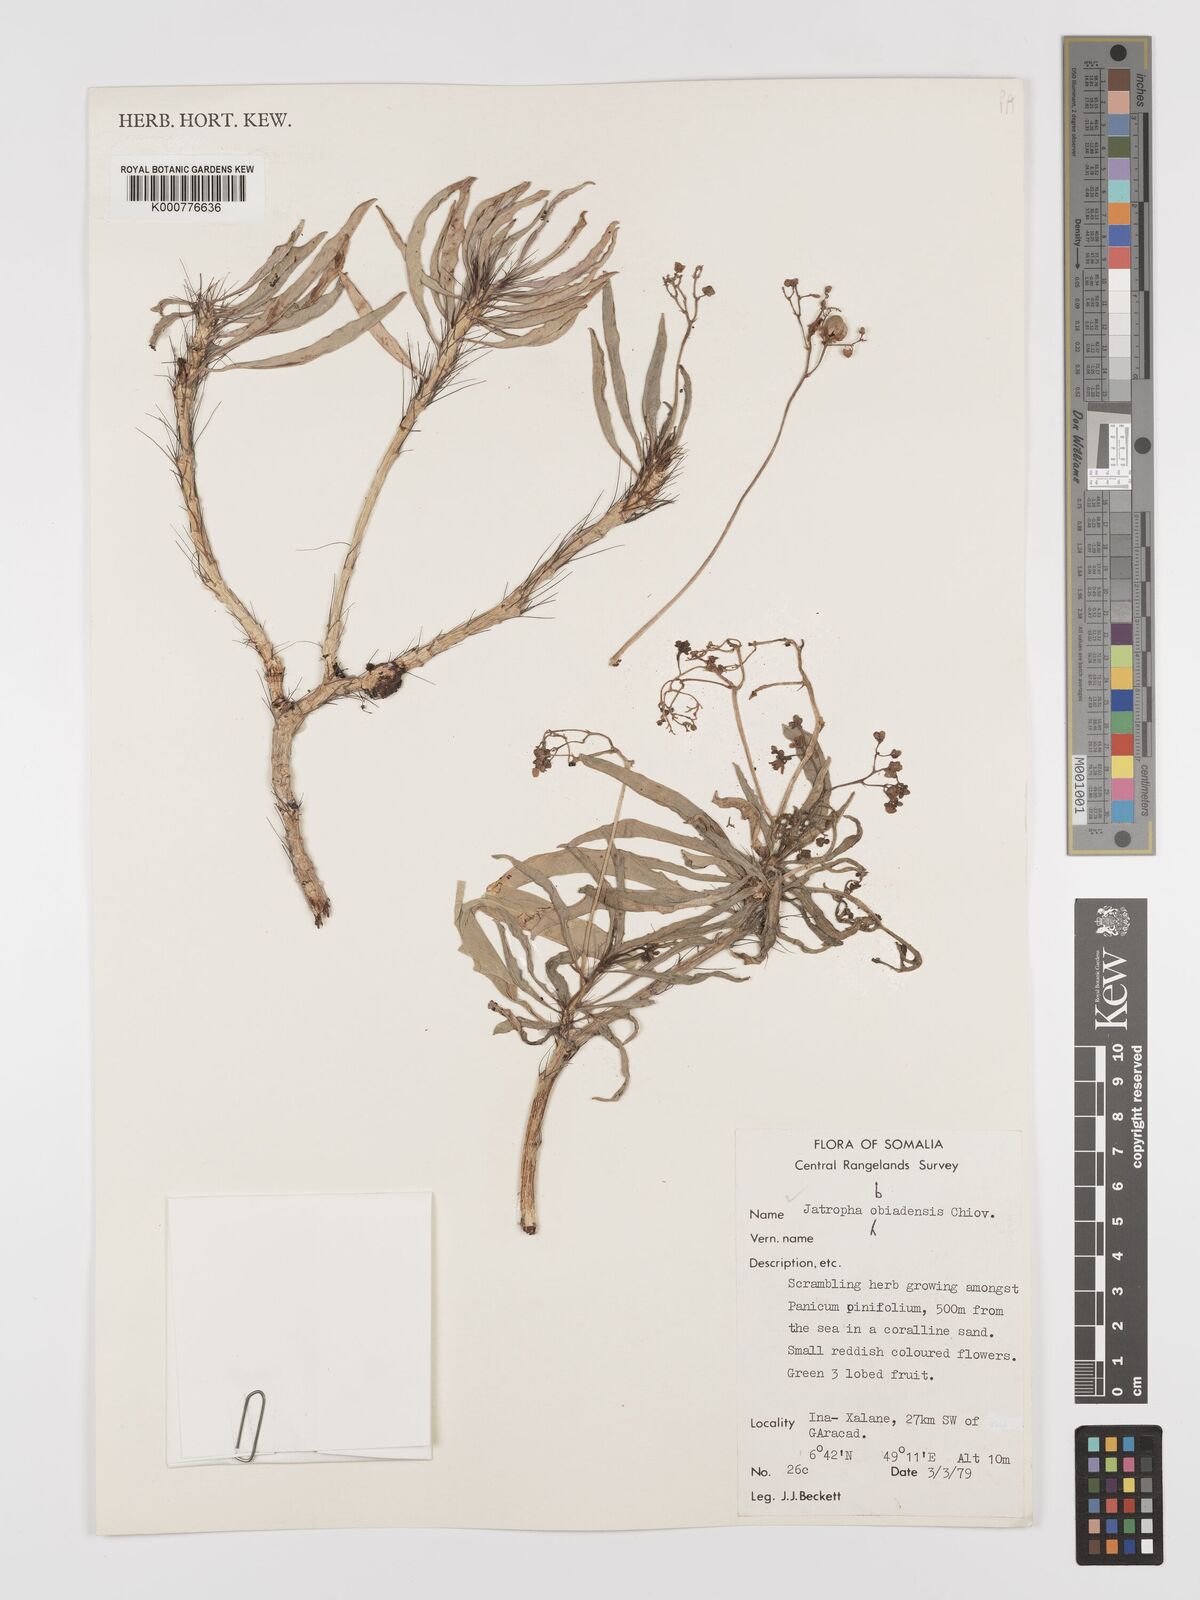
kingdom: Plantae
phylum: Tracheophyta
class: Magnoliopsida
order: Malpighiales
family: Euphorbiaceae
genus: Jatropha
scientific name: Jatropha obbiadensis
